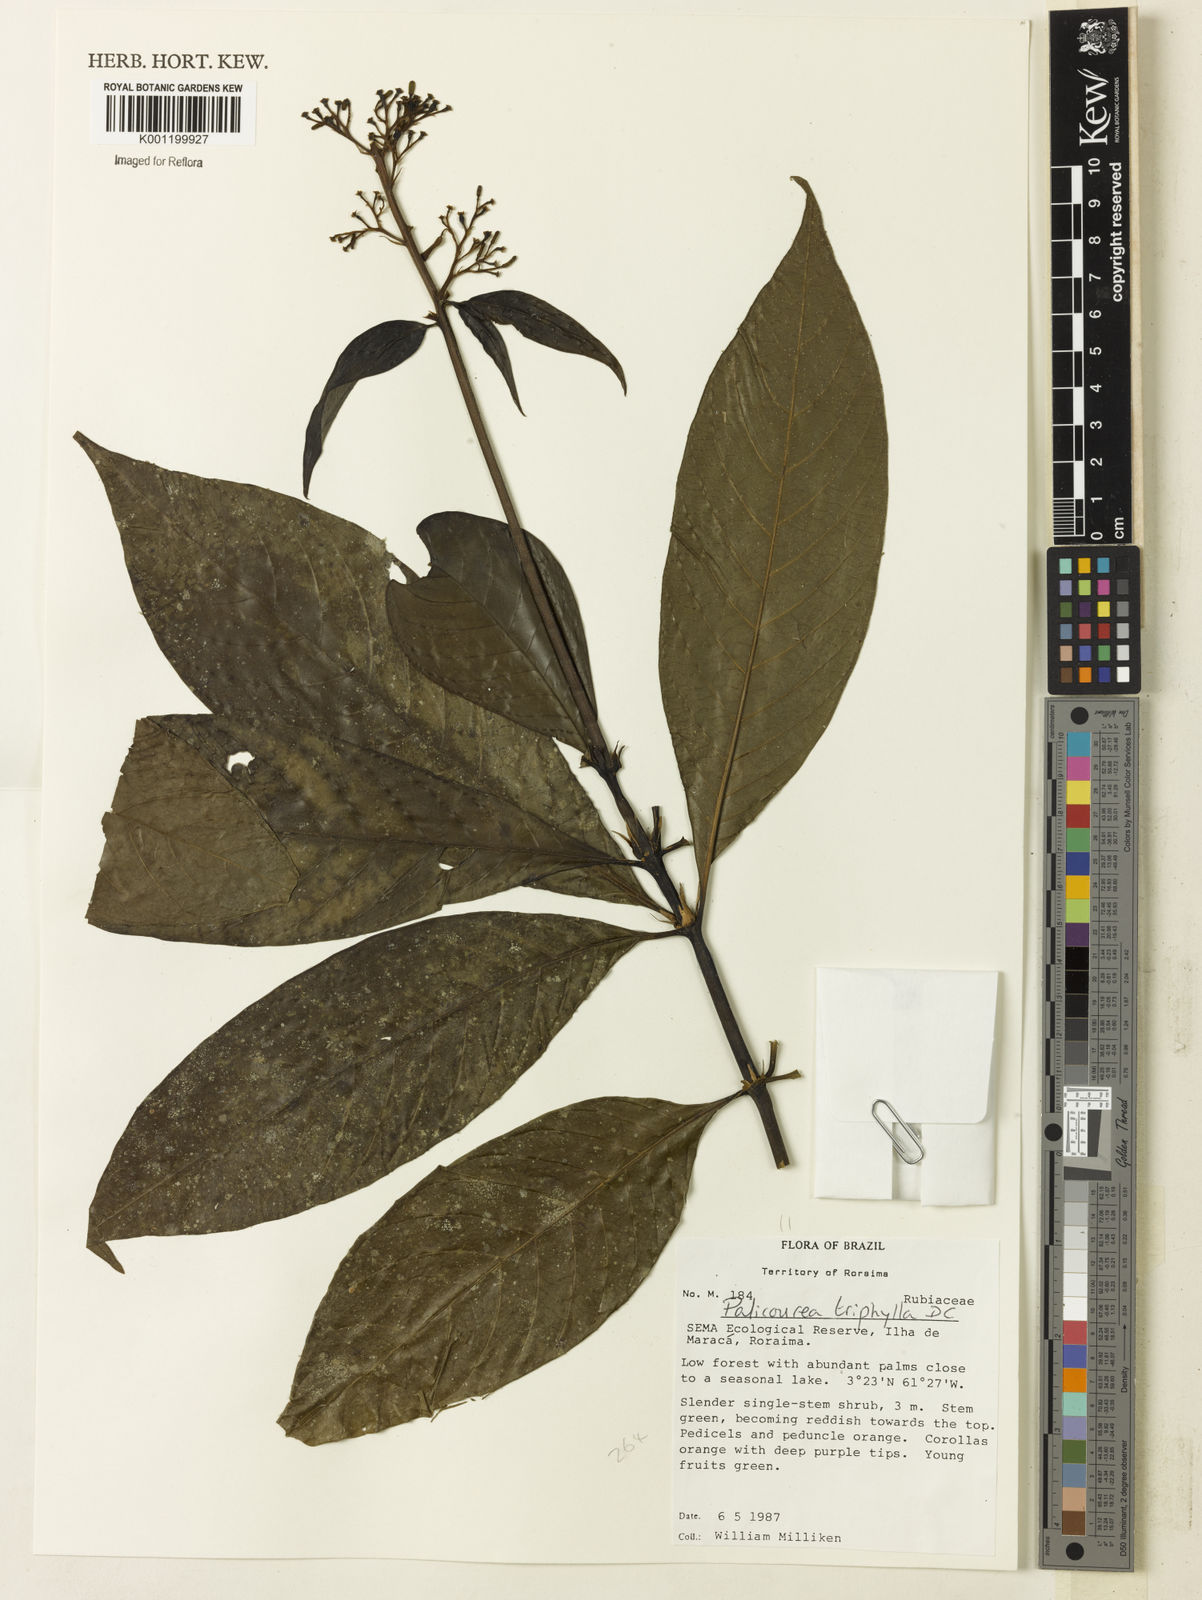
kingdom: Plantae
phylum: Tracheophyta
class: Magnoliopsida
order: Gentianales
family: Rubiaceae
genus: Palicourea
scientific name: Palicourea triphylla
